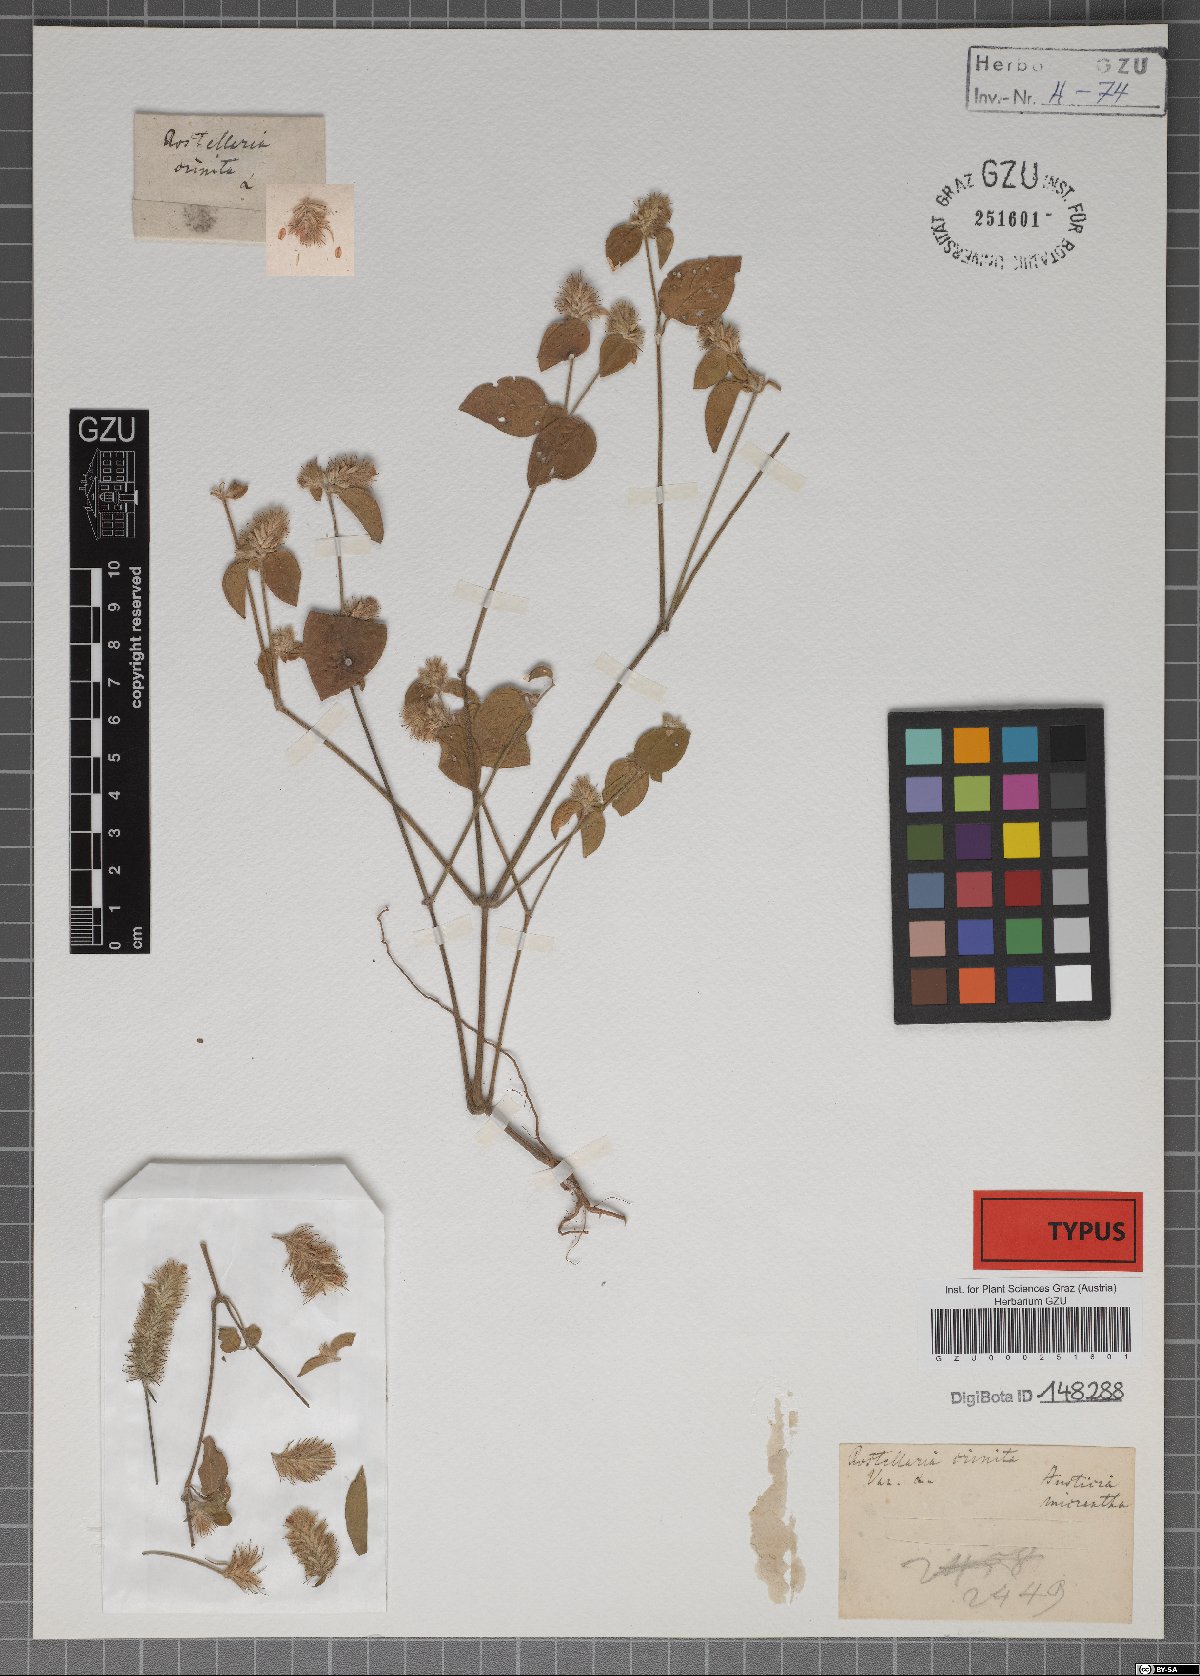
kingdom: Plantae
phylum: Tracheophyta
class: Magnoliopsida
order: Lamiales
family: Acanthaceae
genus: Justicia
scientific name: Justicia micrantha
